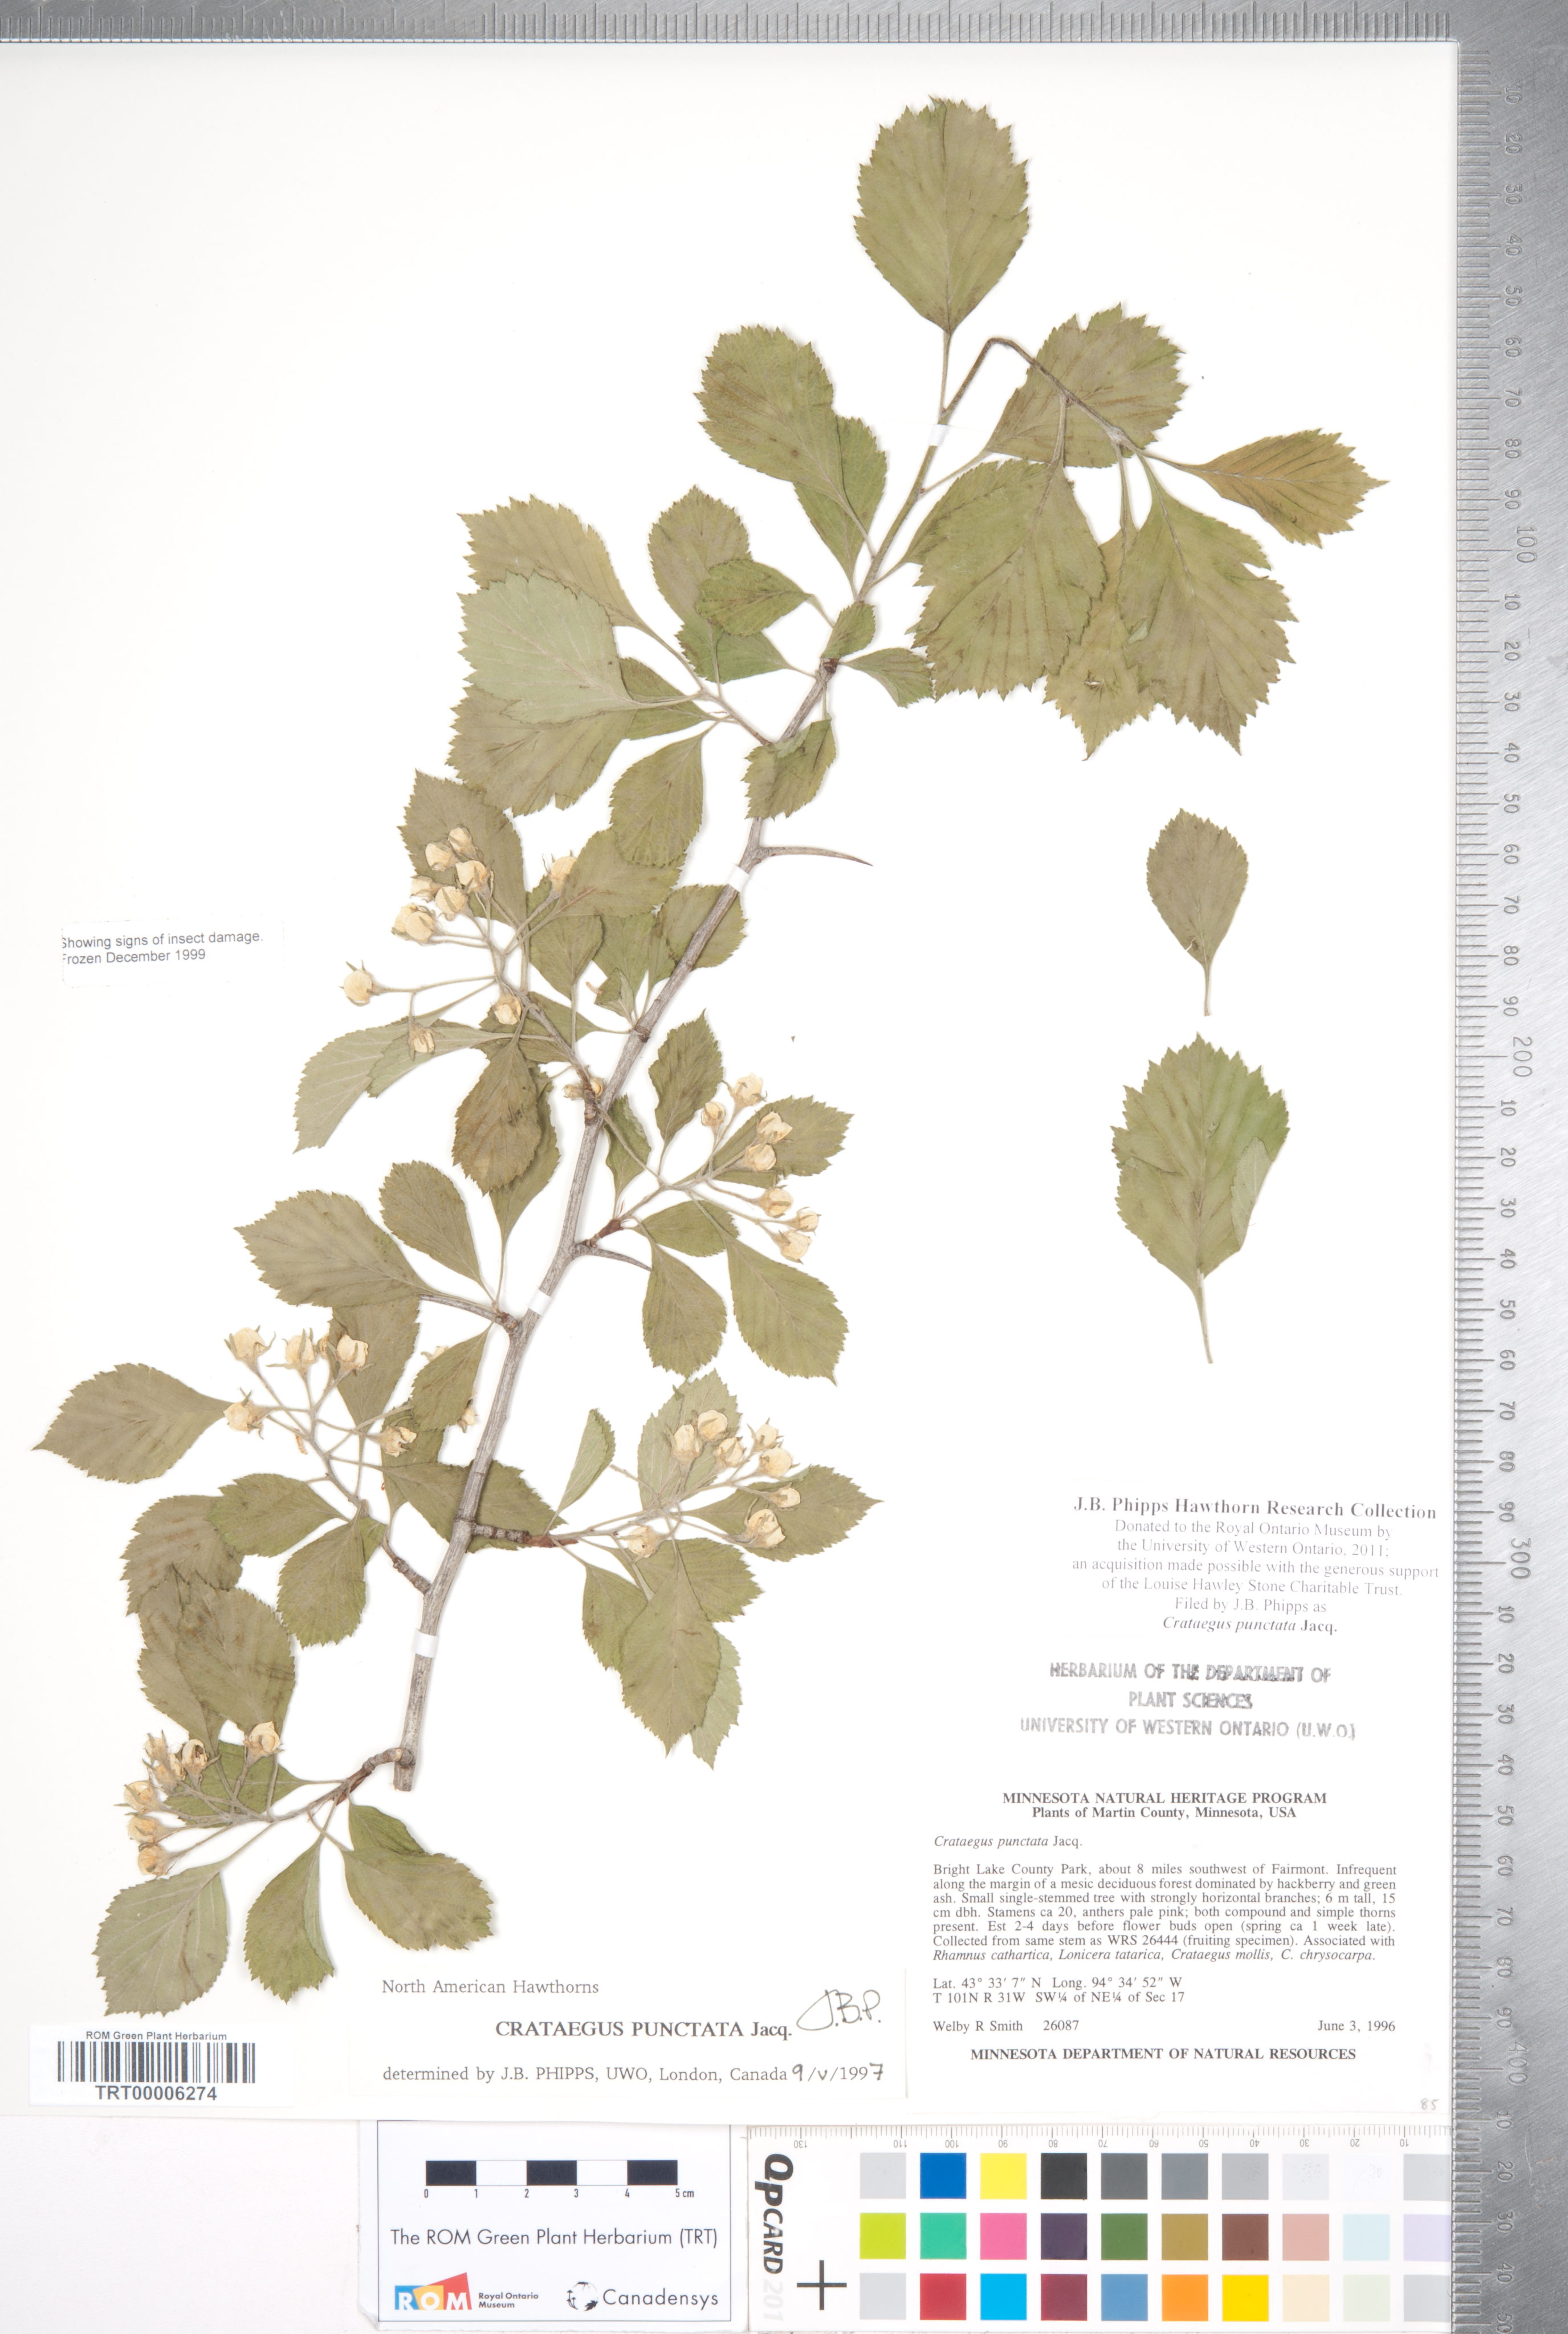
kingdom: Plantae
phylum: Tracheophyta
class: Magnoliopsida
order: Rosales
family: Rosaceae
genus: Crataegus
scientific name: Crataegus punctata
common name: Dotted hawthorn
